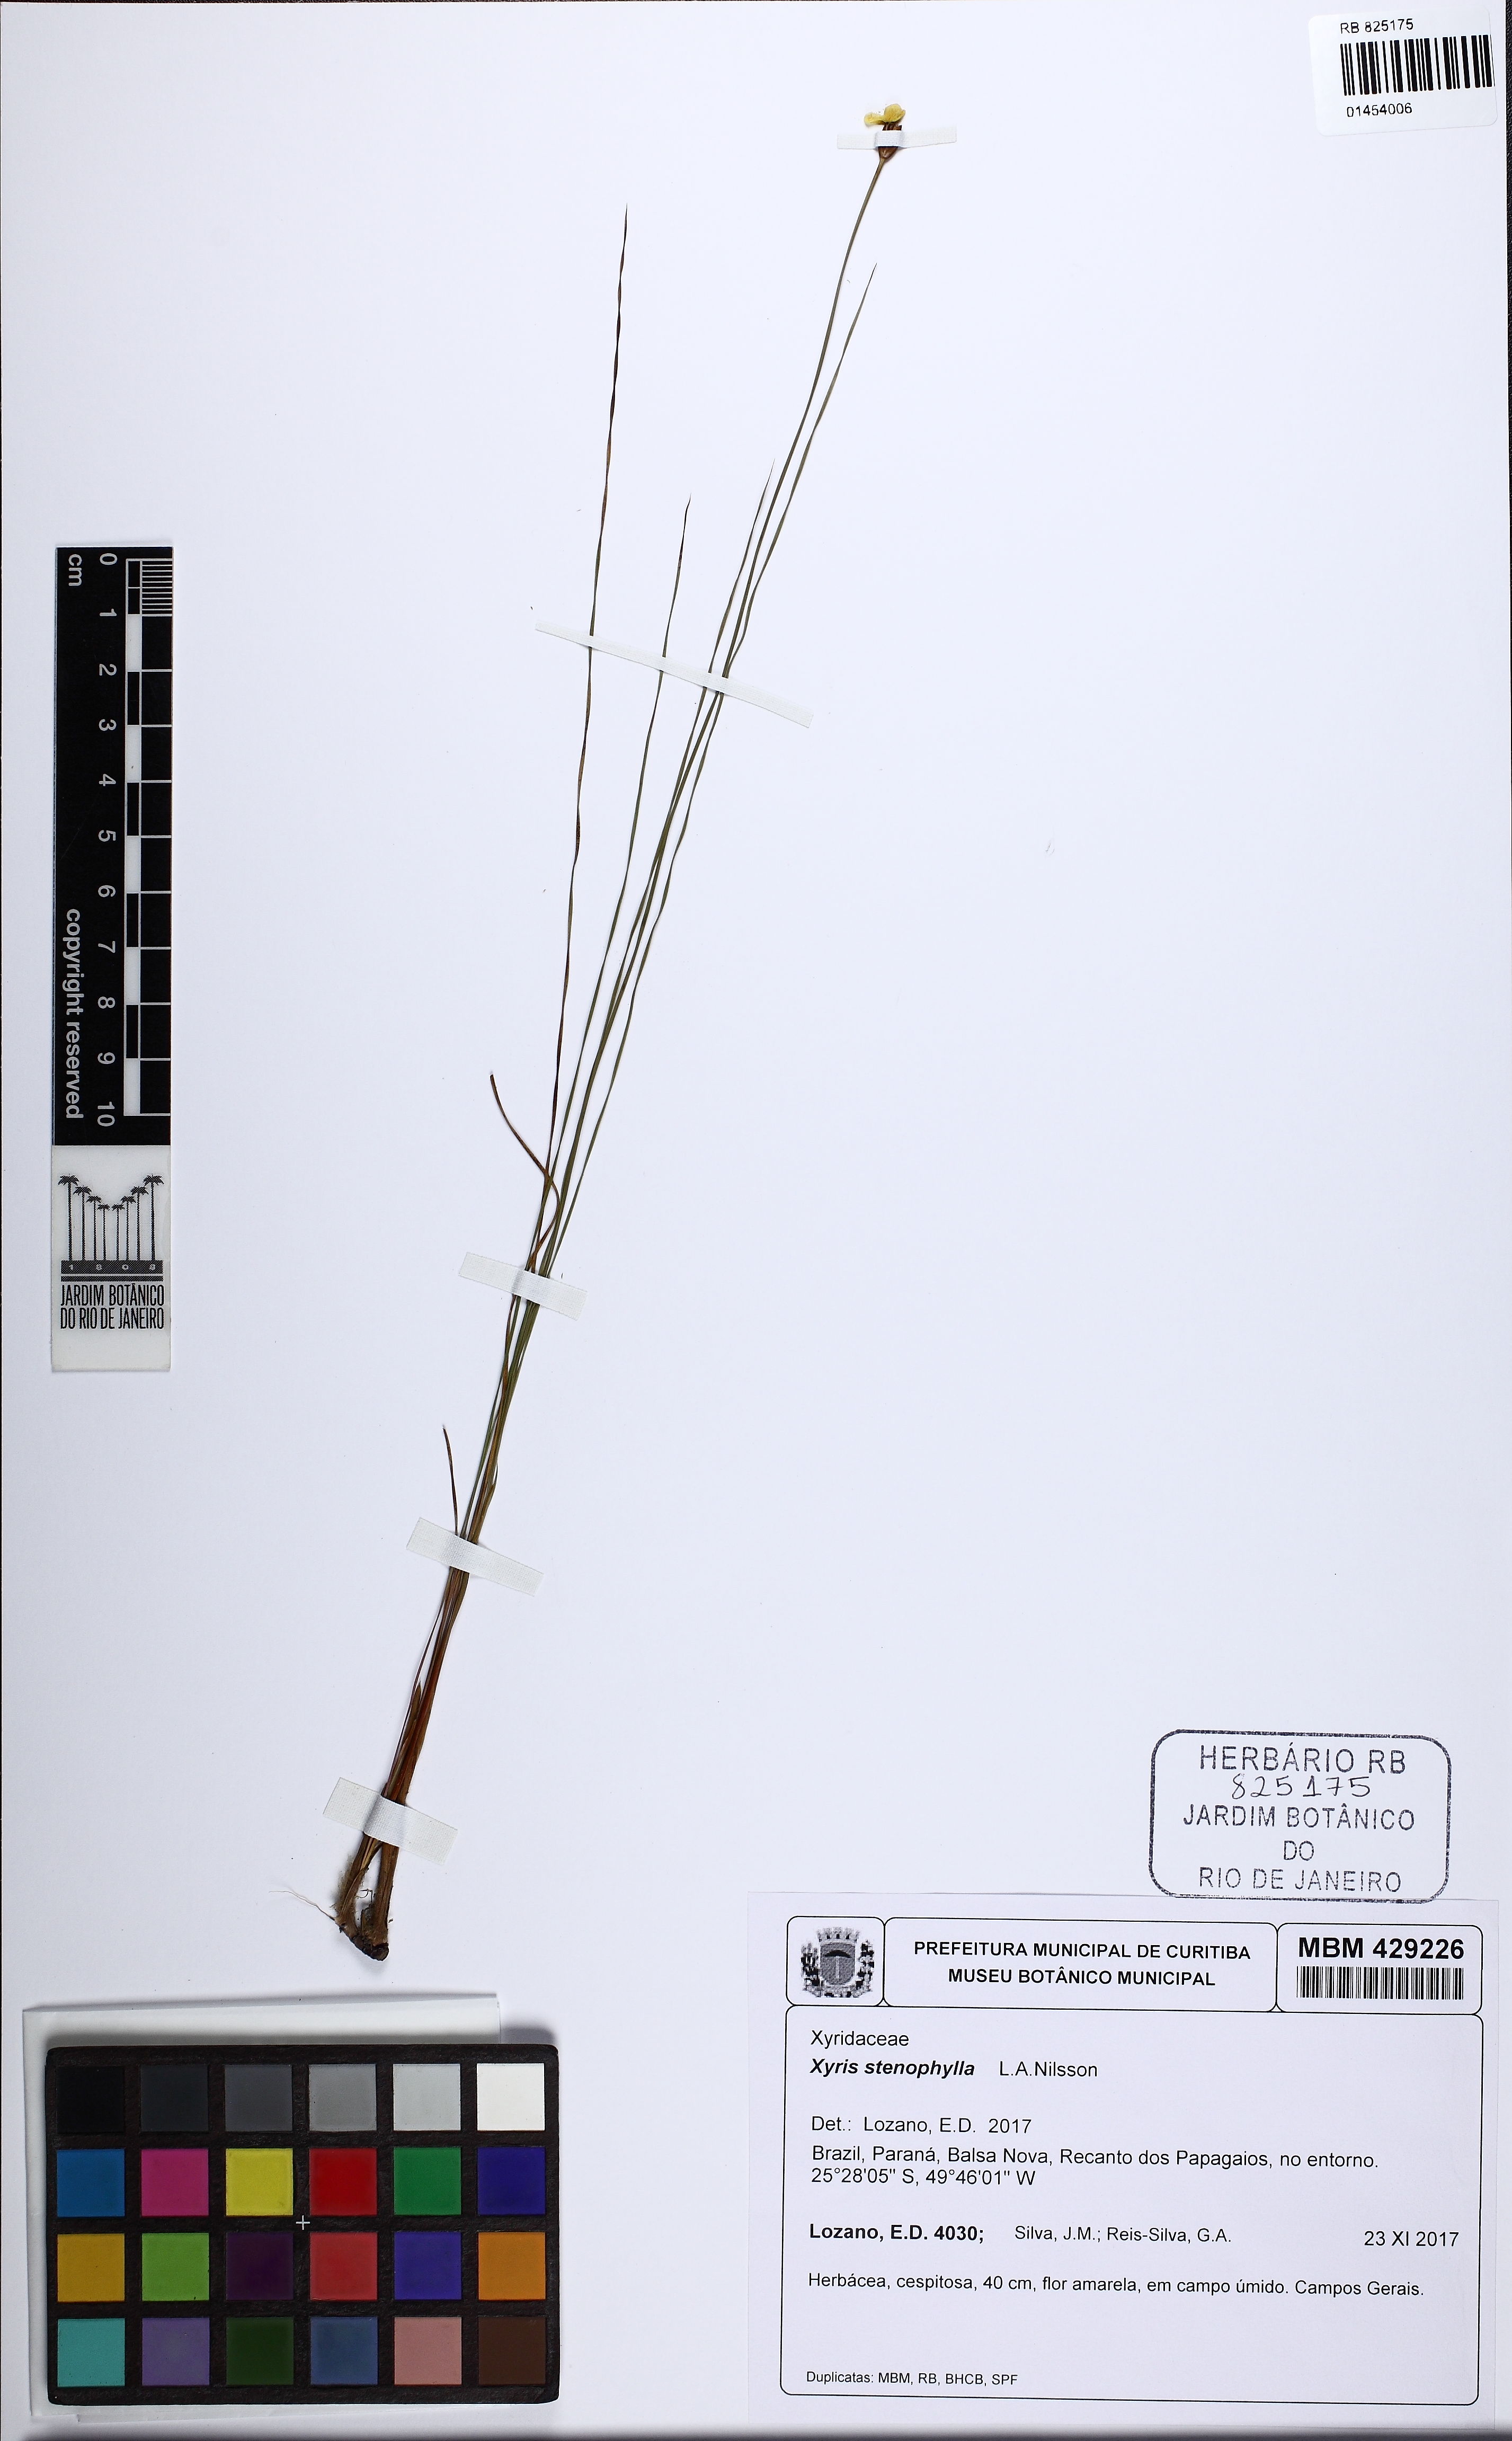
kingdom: Plantae
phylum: Tracheophyta
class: Liliopsida
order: Poales
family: Xyridaceae
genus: Xyris
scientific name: Xyris stenophylla
